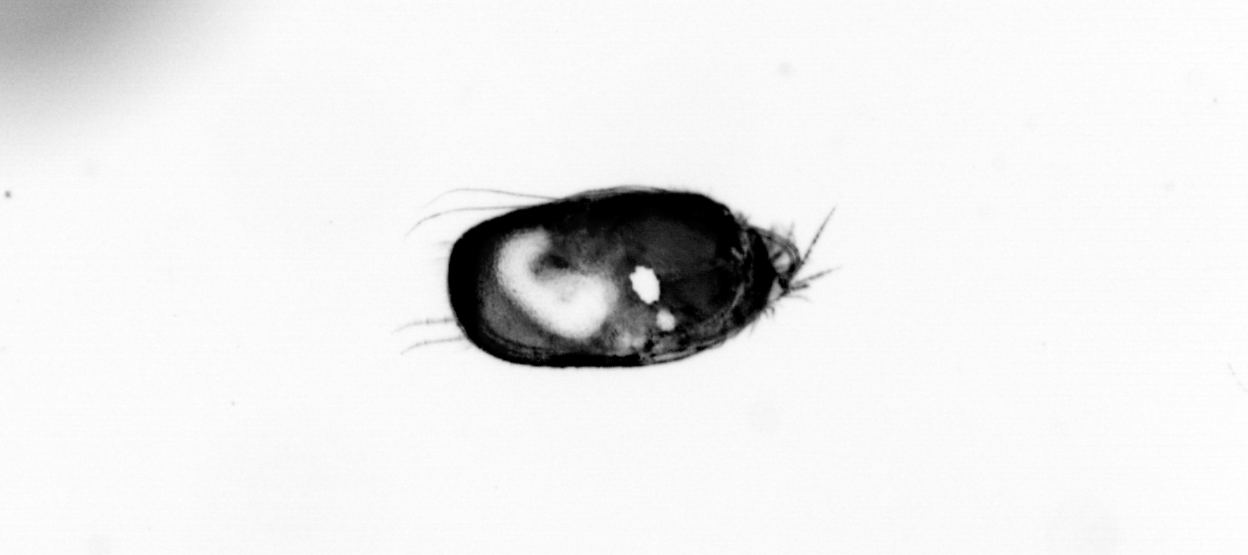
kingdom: Animalia
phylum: Arthropoda
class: Copepoda
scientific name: Copepoda
